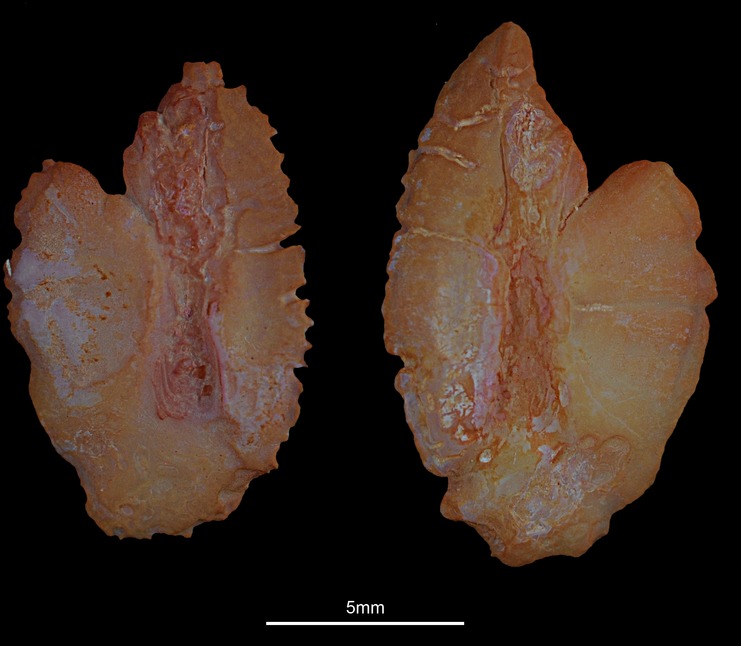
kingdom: Animalia
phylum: Chordata
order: Scorpaeniformes
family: Sebastidae
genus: Sebastes
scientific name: Sebastes norvegicus
